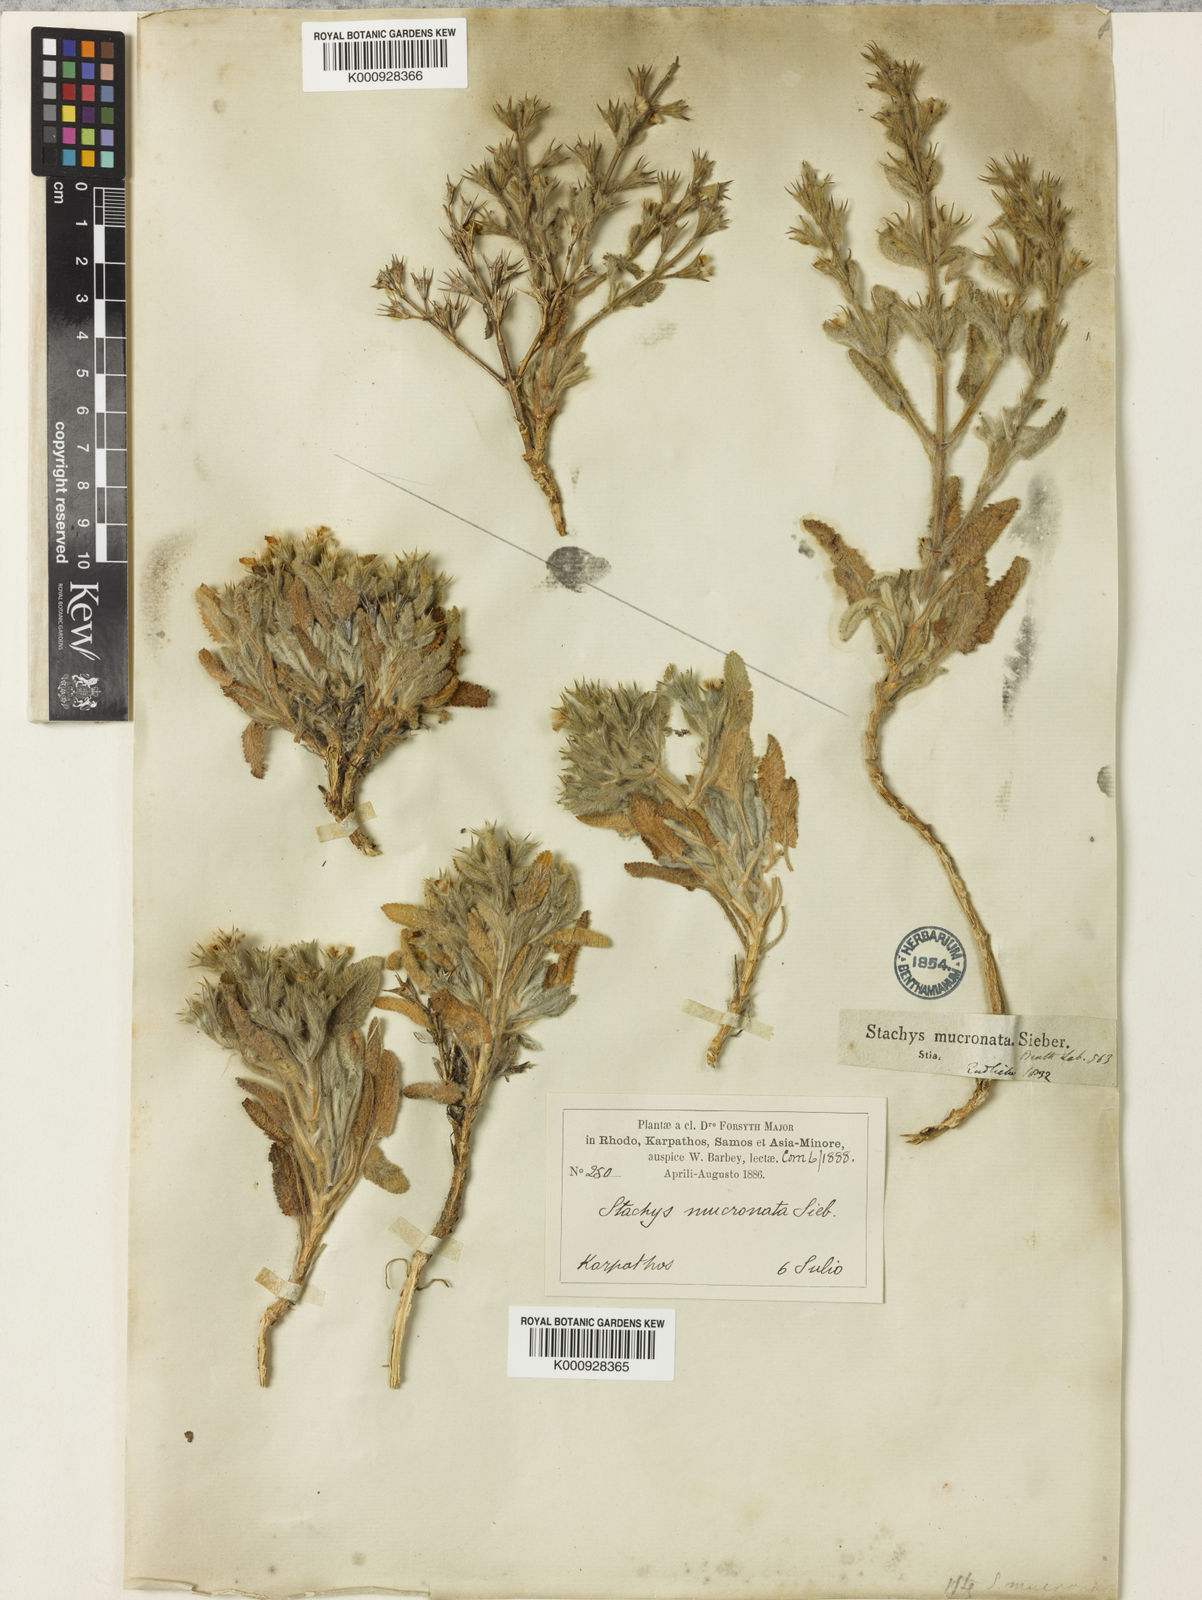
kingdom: Plantae
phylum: Tracheophyta
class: Magnoliopsida
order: Lamiales
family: Lamiaceae
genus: Stachys
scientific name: Stachys mucronata
